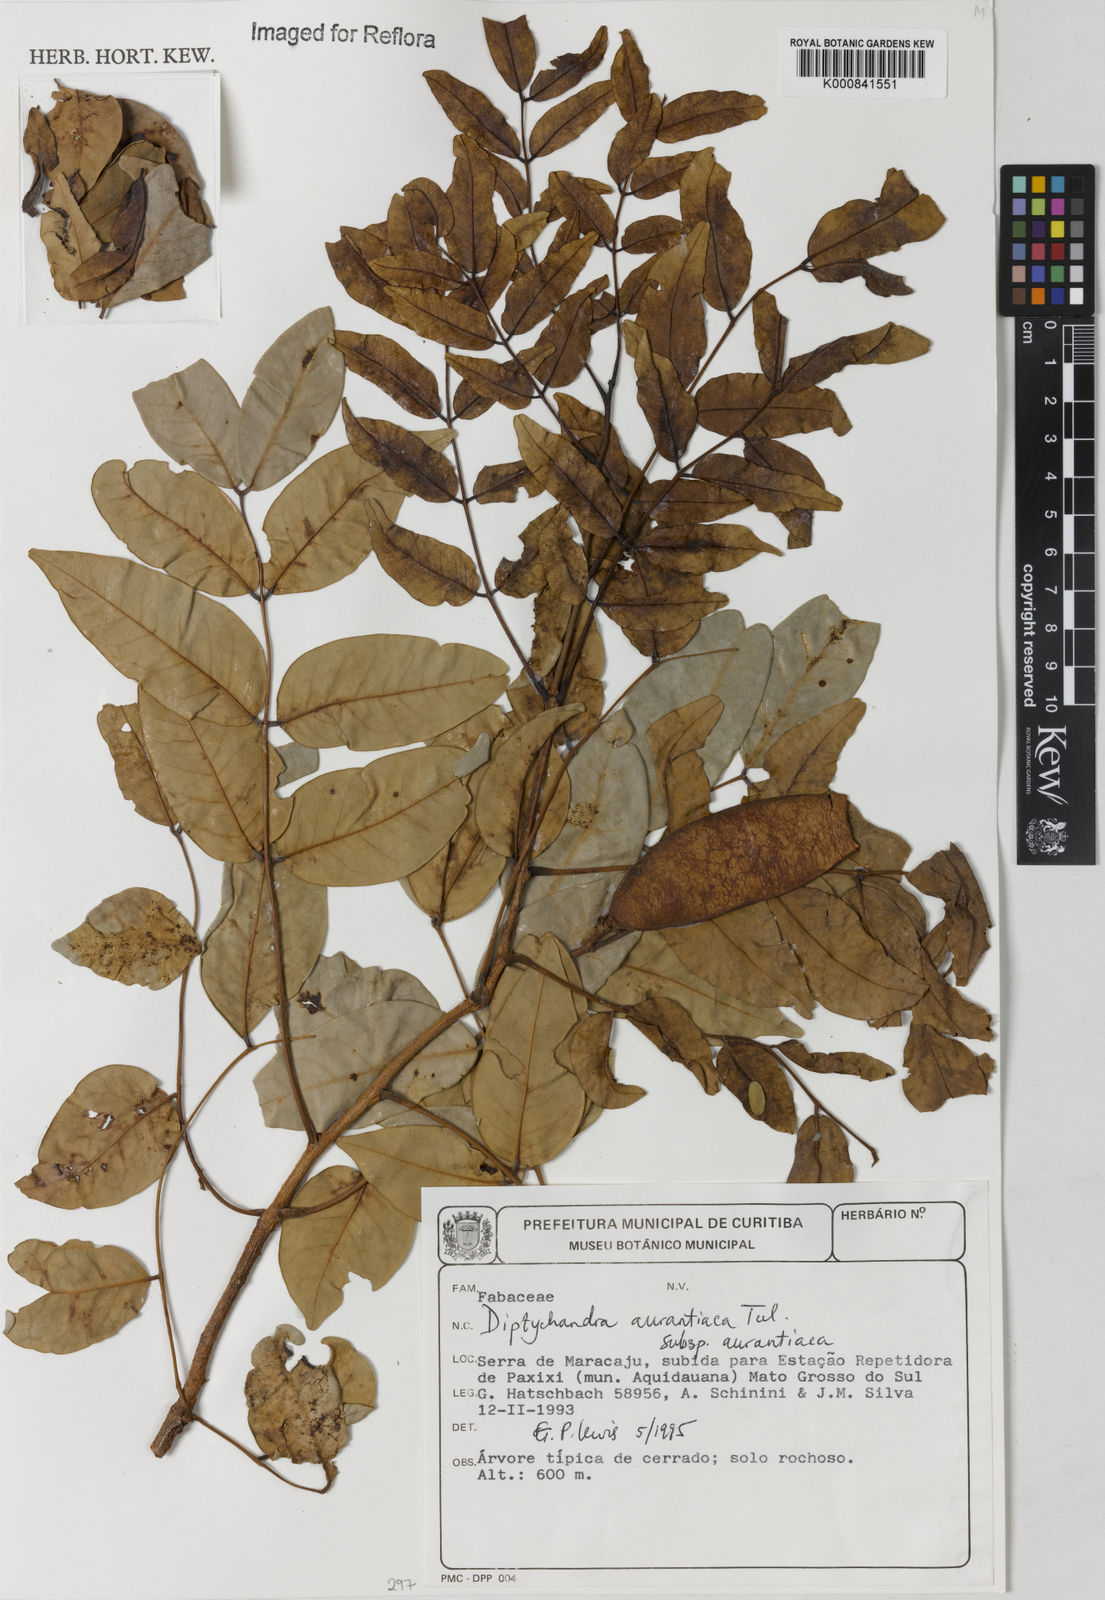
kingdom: Plantae
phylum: Tracheophyta
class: Magnoliopsida
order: Fabales
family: Fabaceae
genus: Diptychandra
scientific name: Diptychandra aurantiaca
